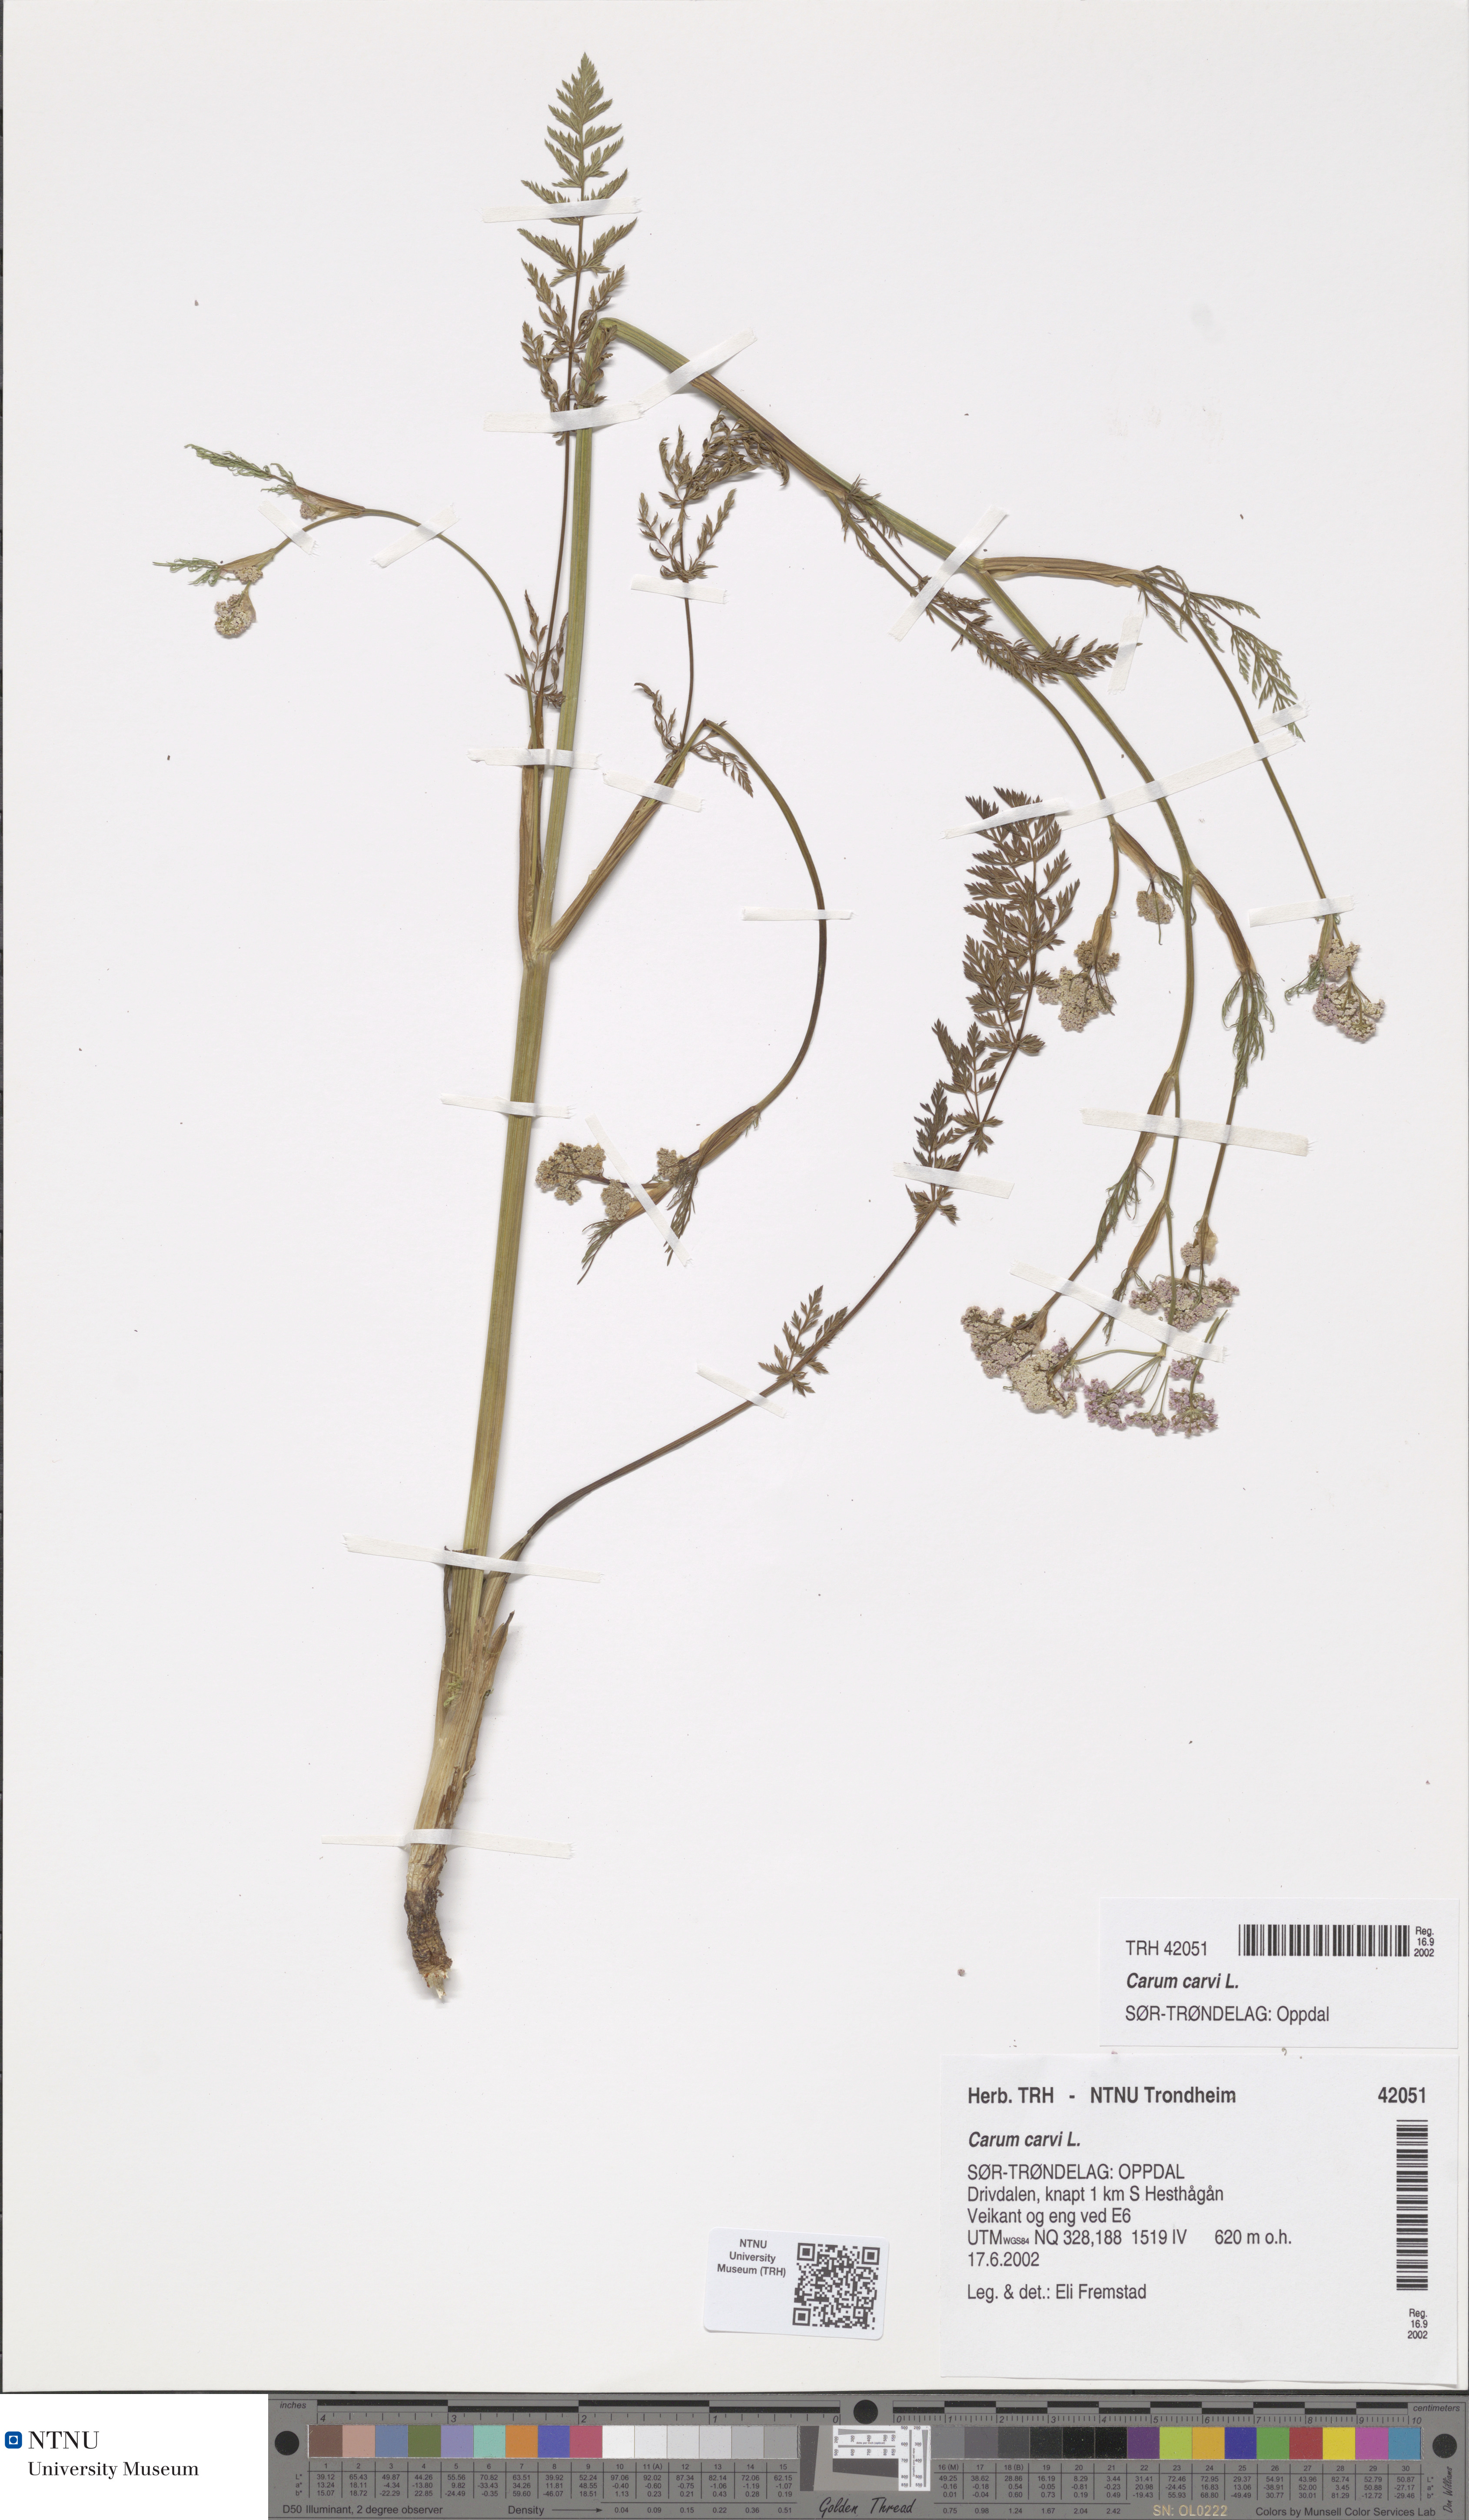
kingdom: Plantae
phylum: Tracheophyta
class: Magnoliopsida
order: Apiales
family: Apiaceae
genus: Carum
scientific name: Carum carvi
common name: Caraway
